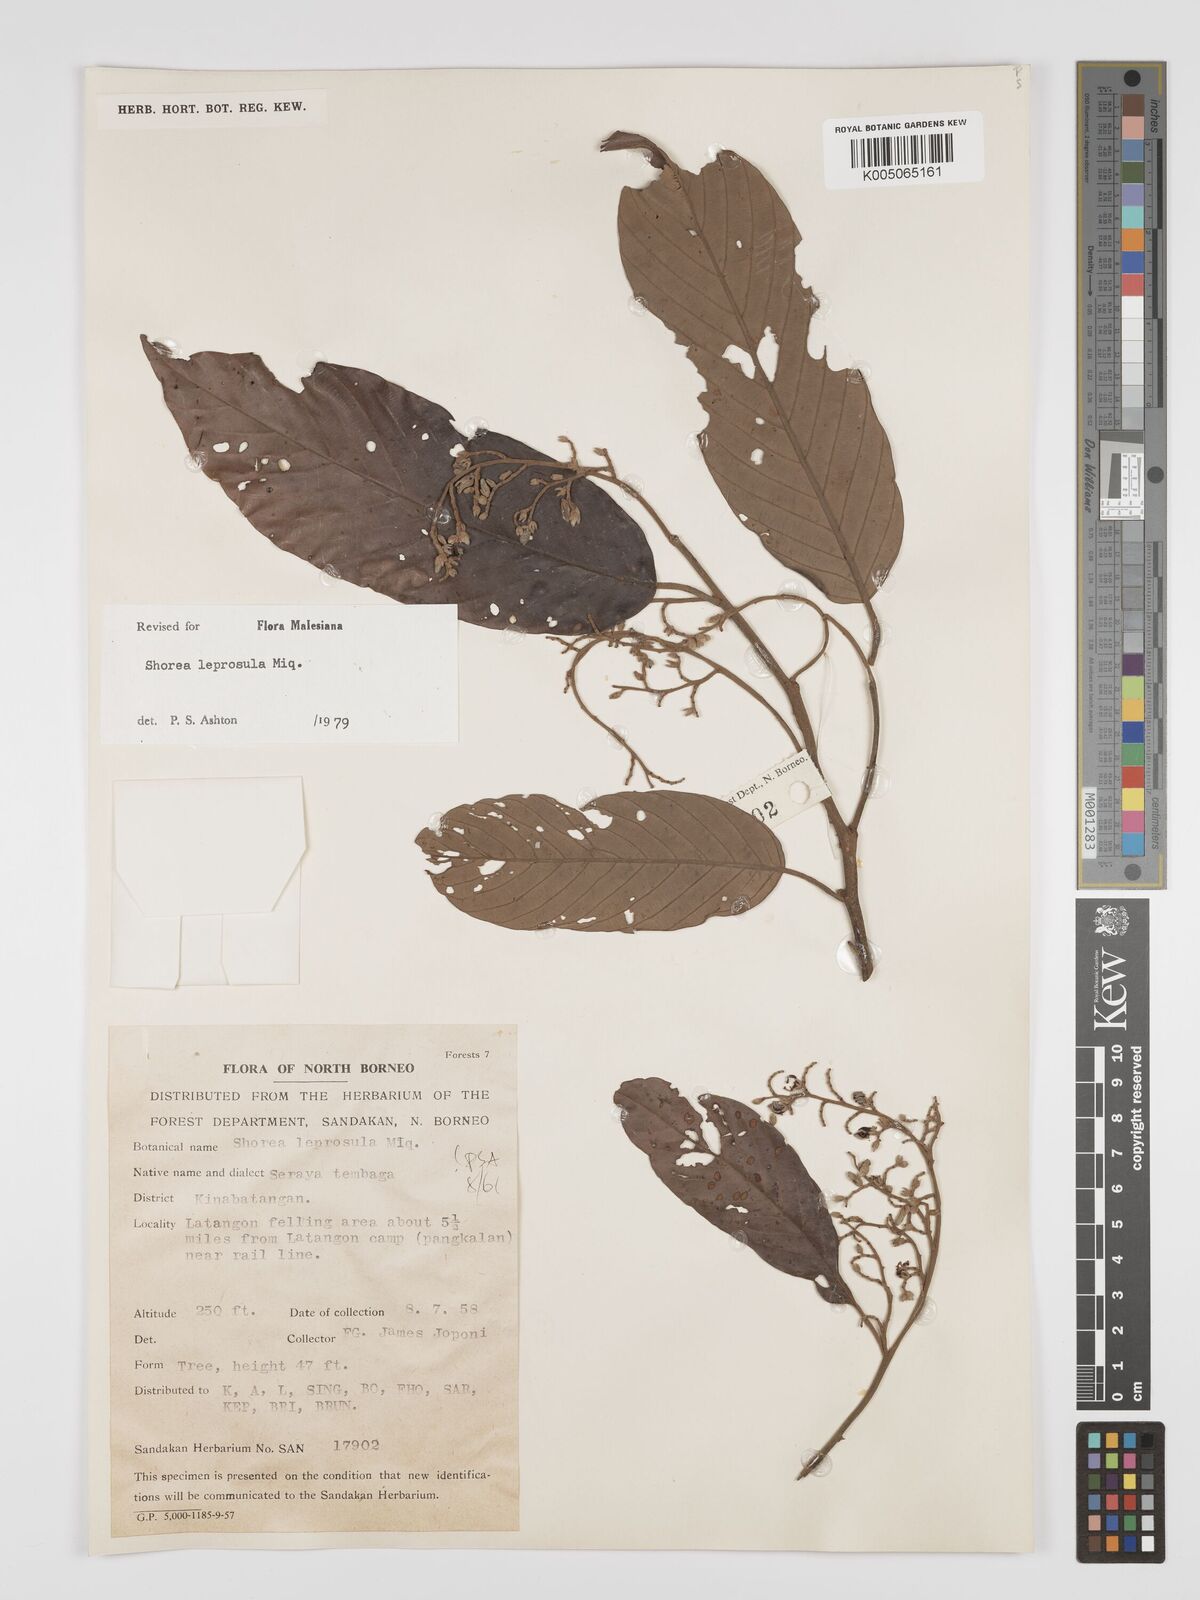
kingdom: Plantae
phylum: Tracheophyta
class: Magnoliopsida
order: Malvales
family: Dipterocarpaceae
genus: Shorea
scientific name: Shorea leprosula
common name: Light red meranti
